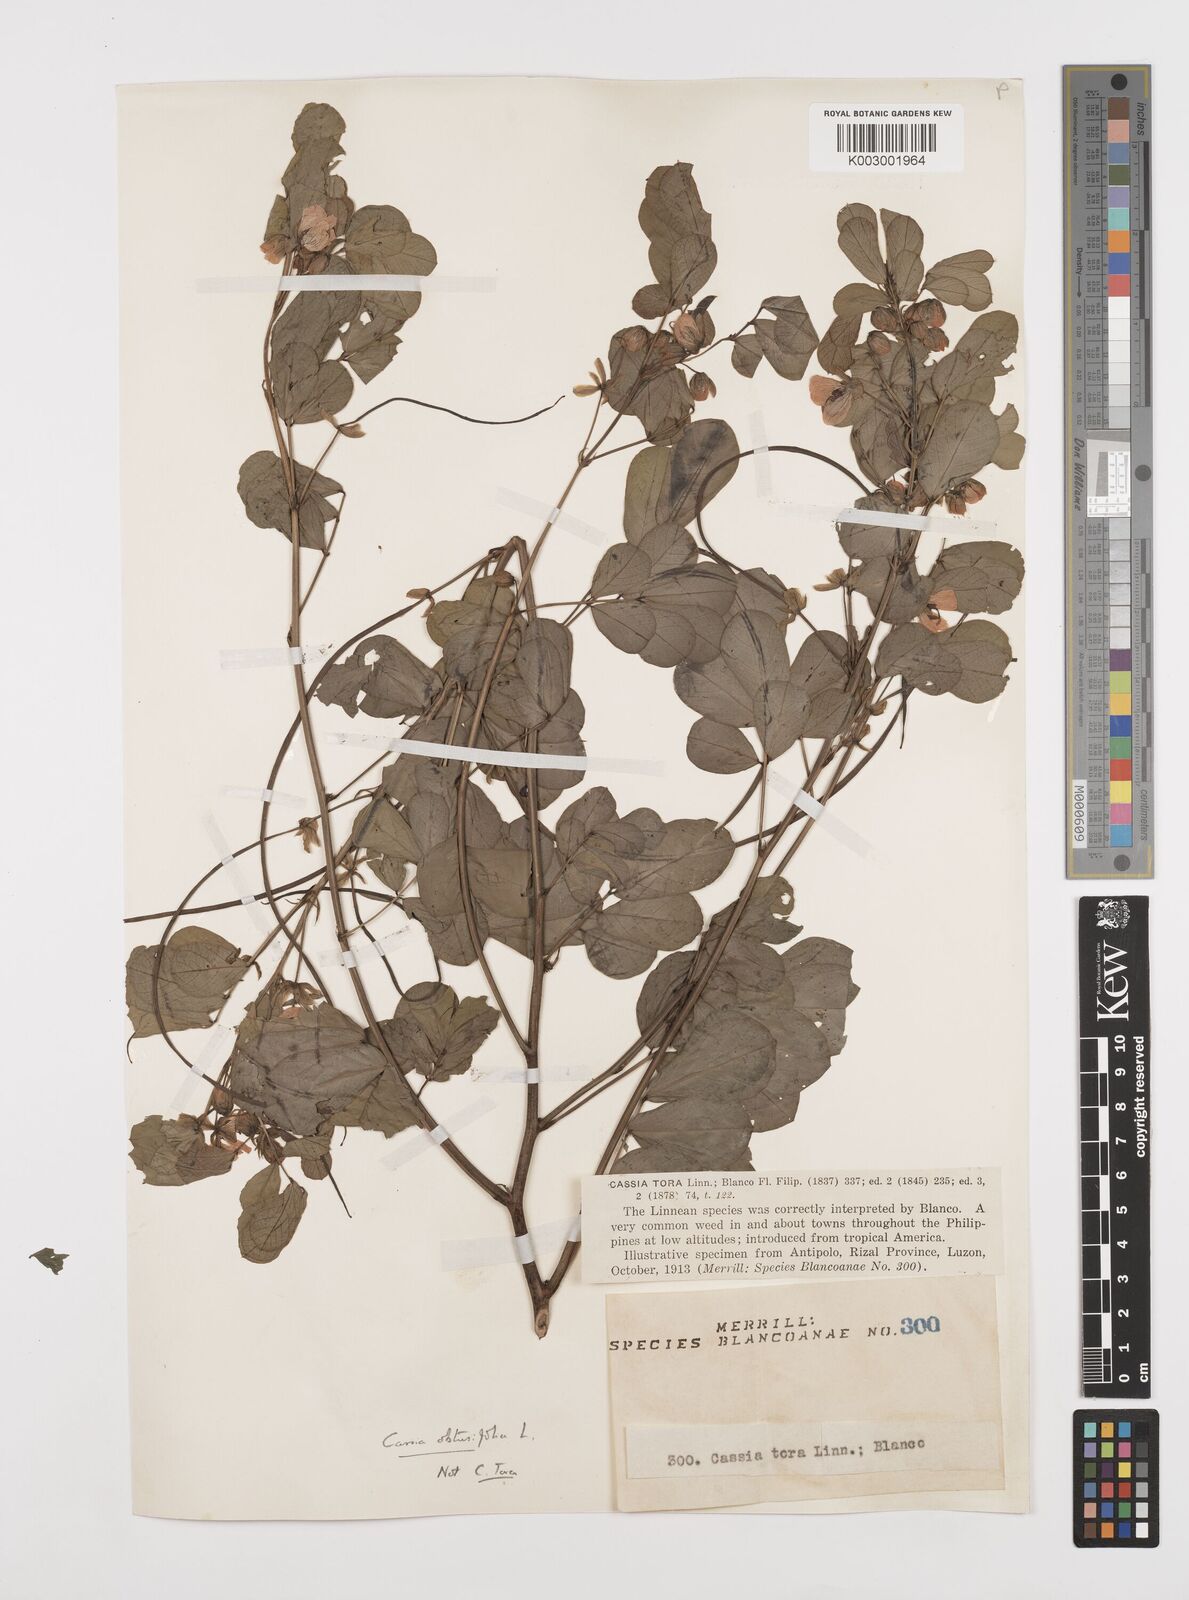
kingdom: Plantae
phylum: Tracheophyta
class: Magnoliopsida
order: Fabales
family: Fabaceae
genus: Senna
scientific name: Senna obtusifolia
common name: Java-bean
